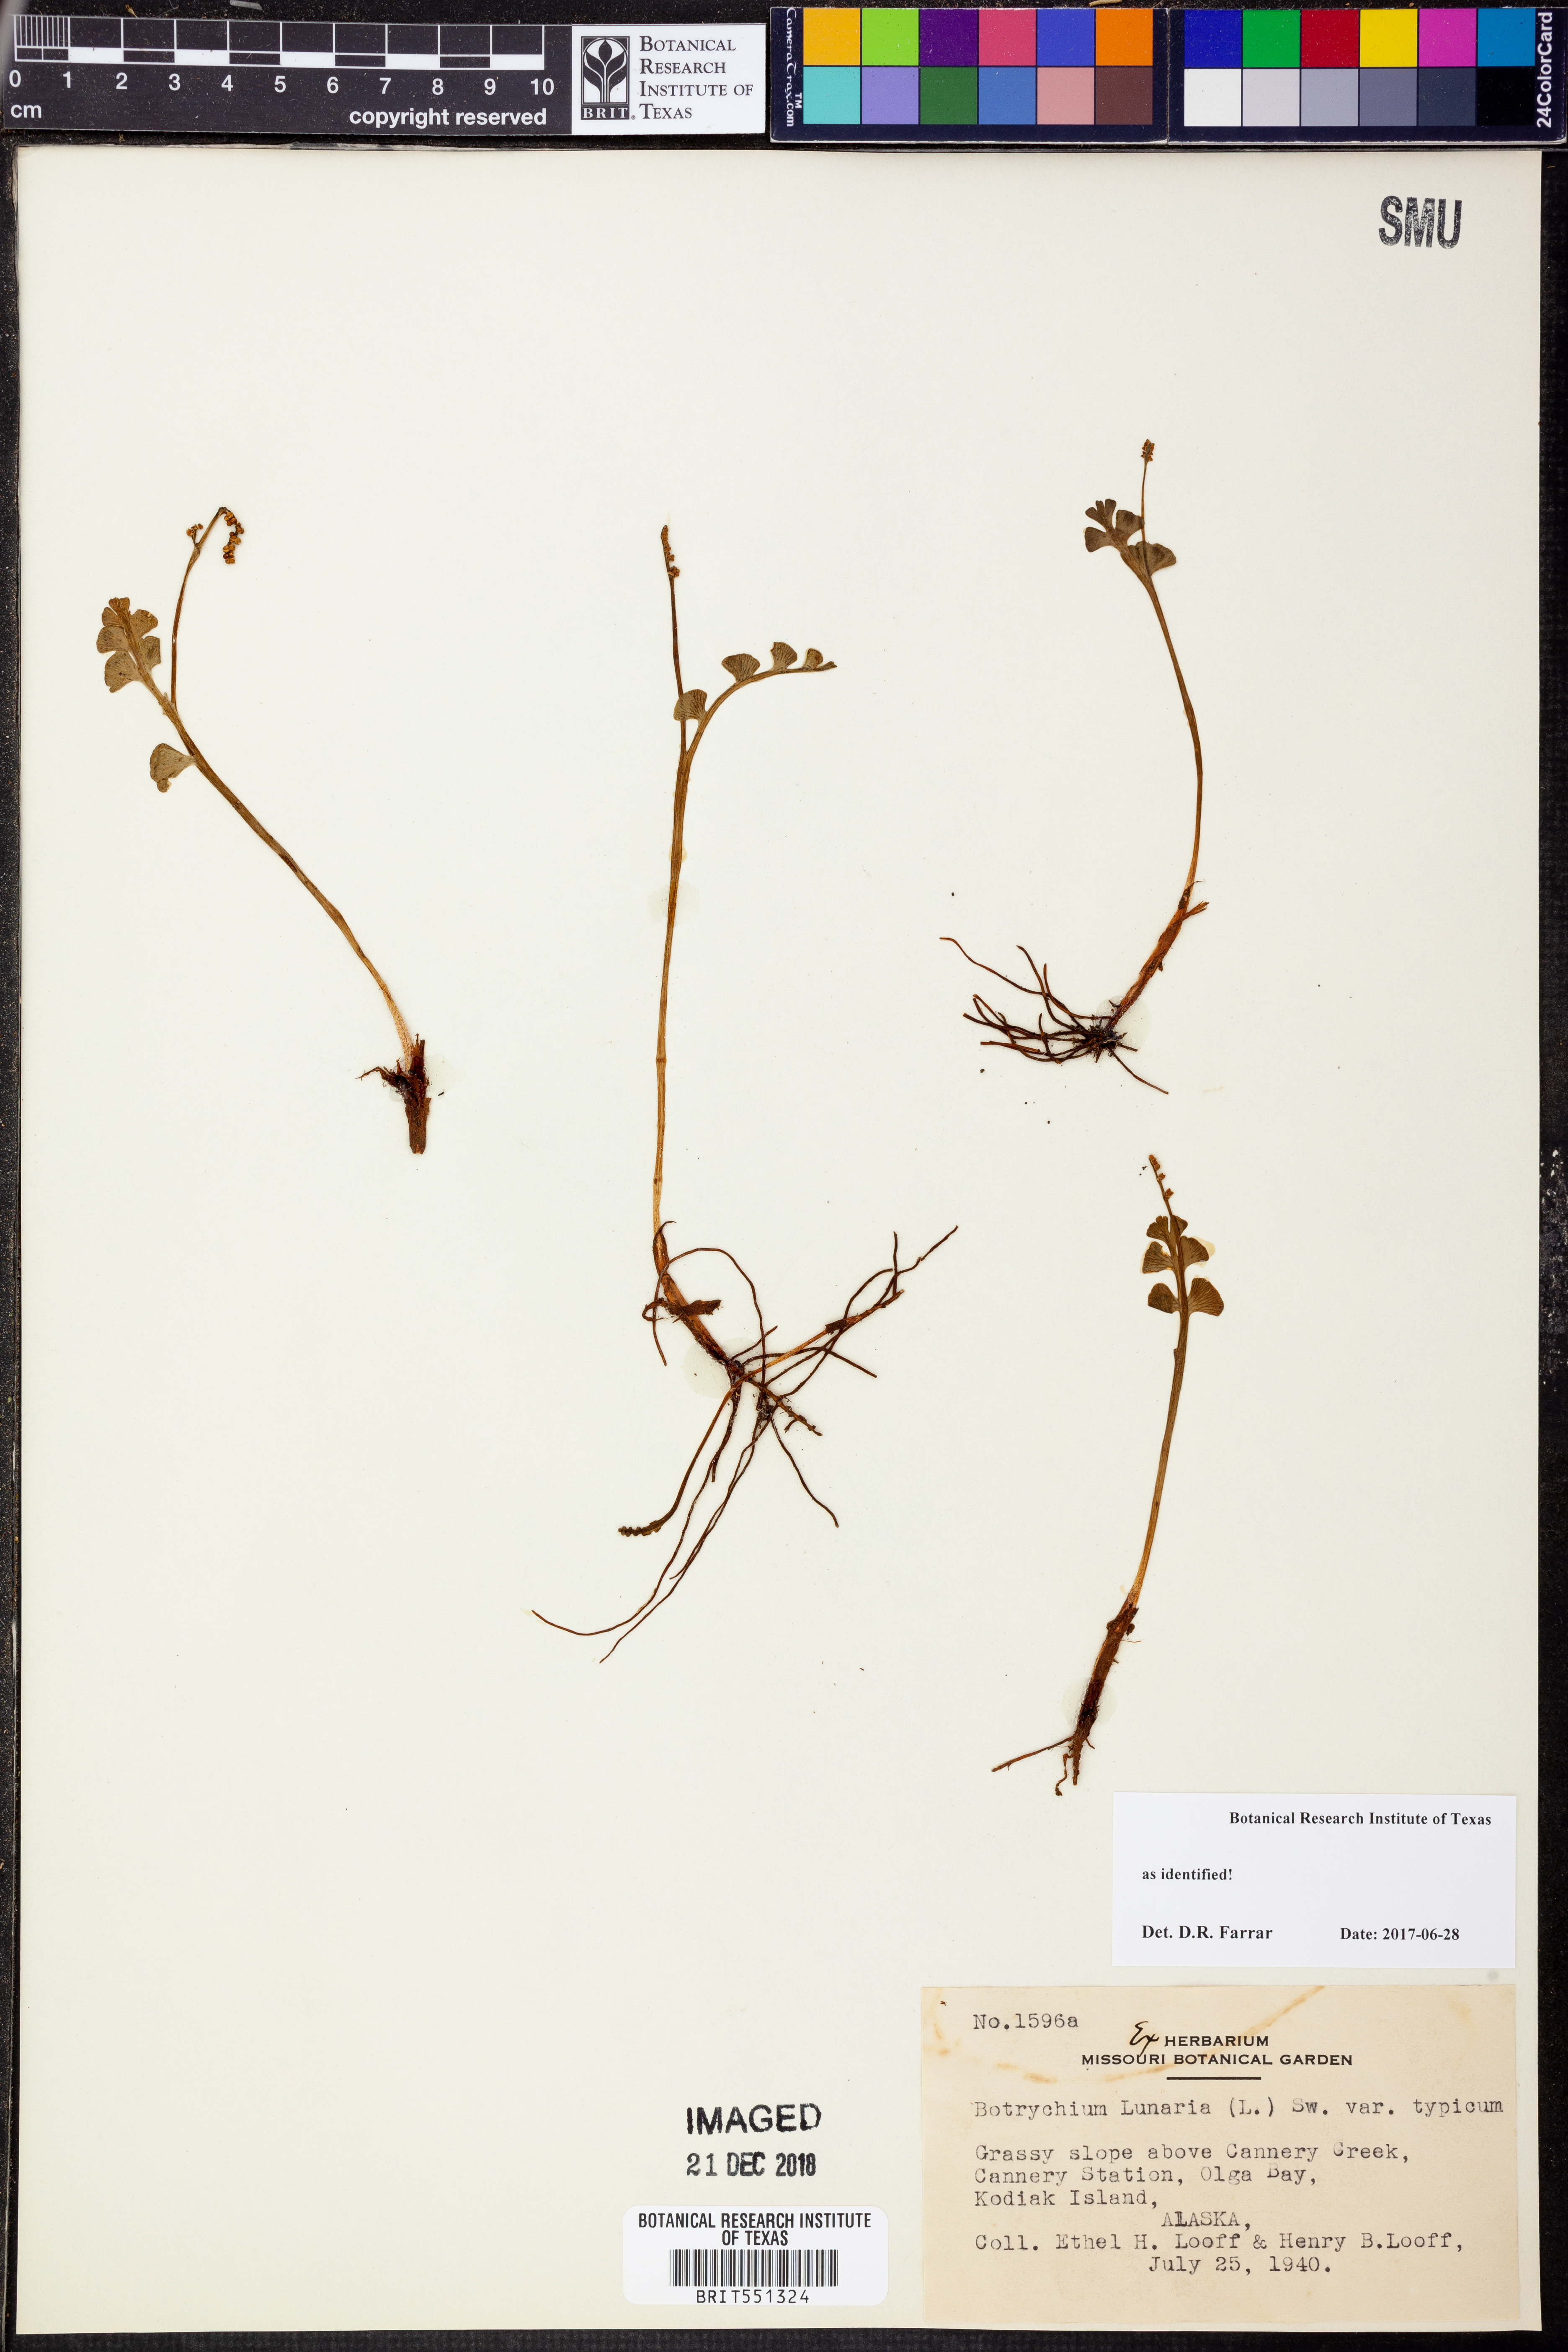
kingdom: Plantae
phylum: Tracheophyta
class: Polypodiopsida
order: Ophioglossales
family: Ophioglossaceae
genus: Botrychium
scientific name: Botrychium lunaria
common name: Moonwort
